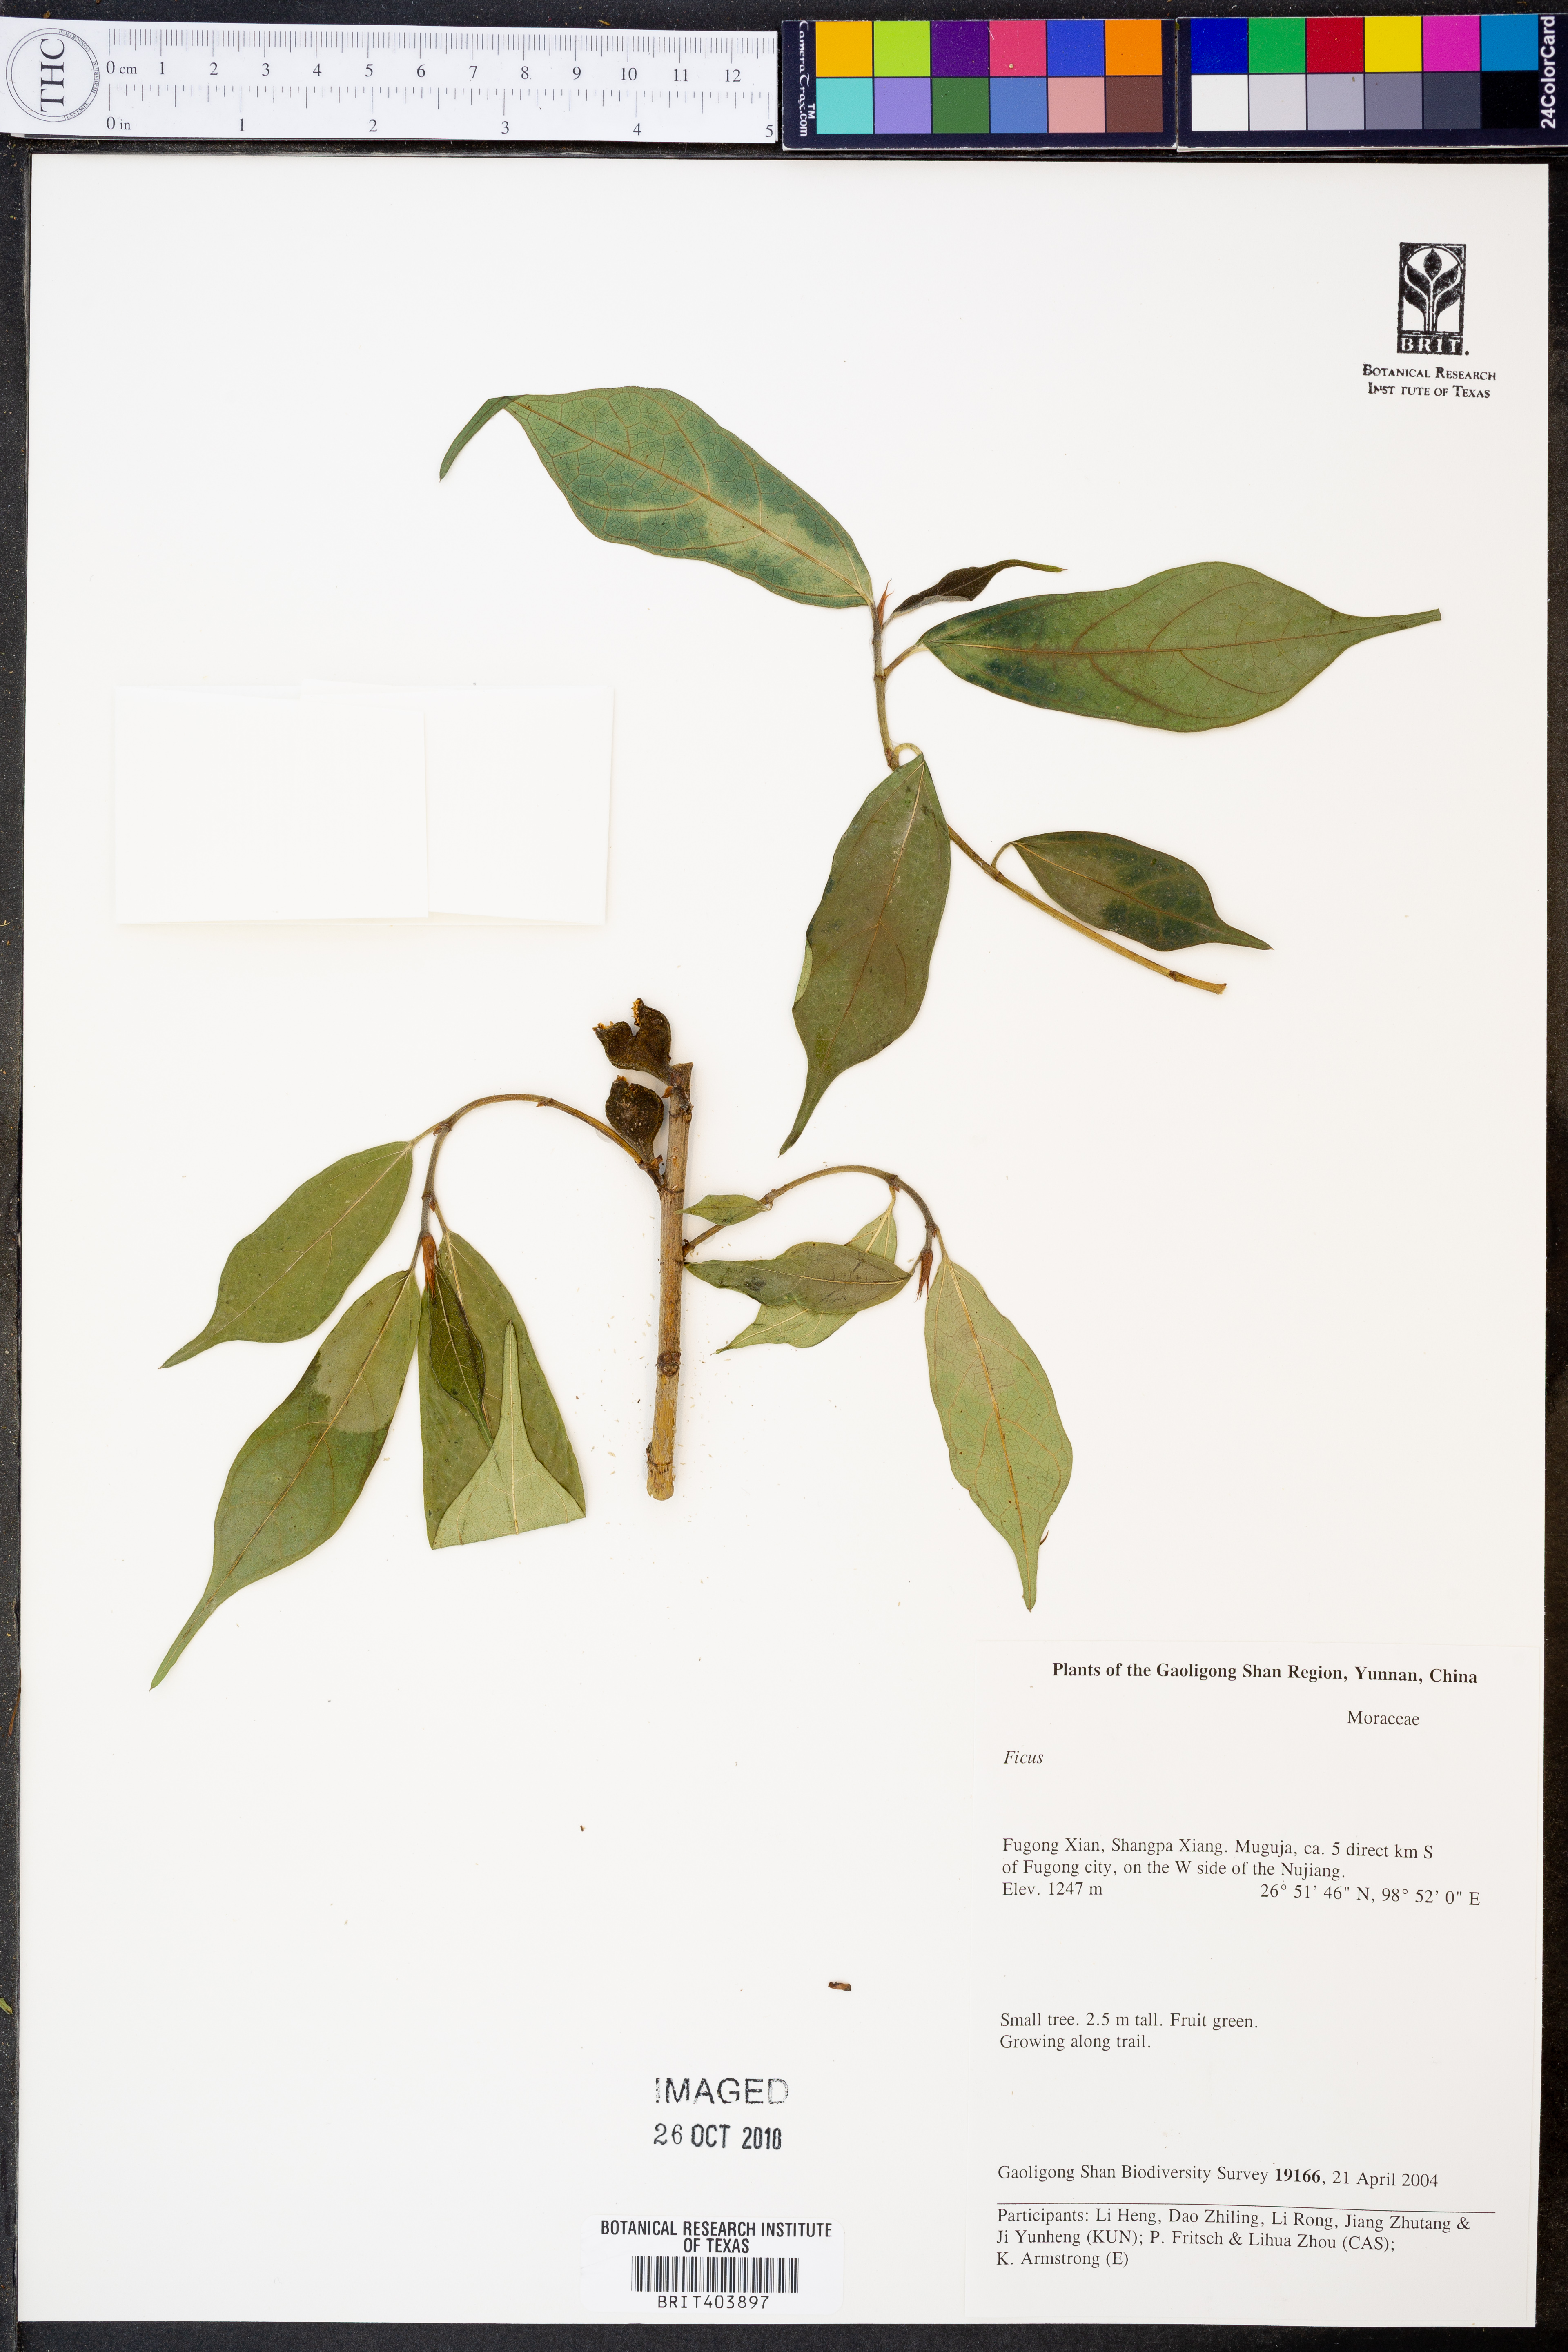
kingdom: Plantae
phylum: Tracheophyta
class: Magnoliopsida
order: Rosales
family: Moraceae
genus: Ficus
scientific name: Ficus
